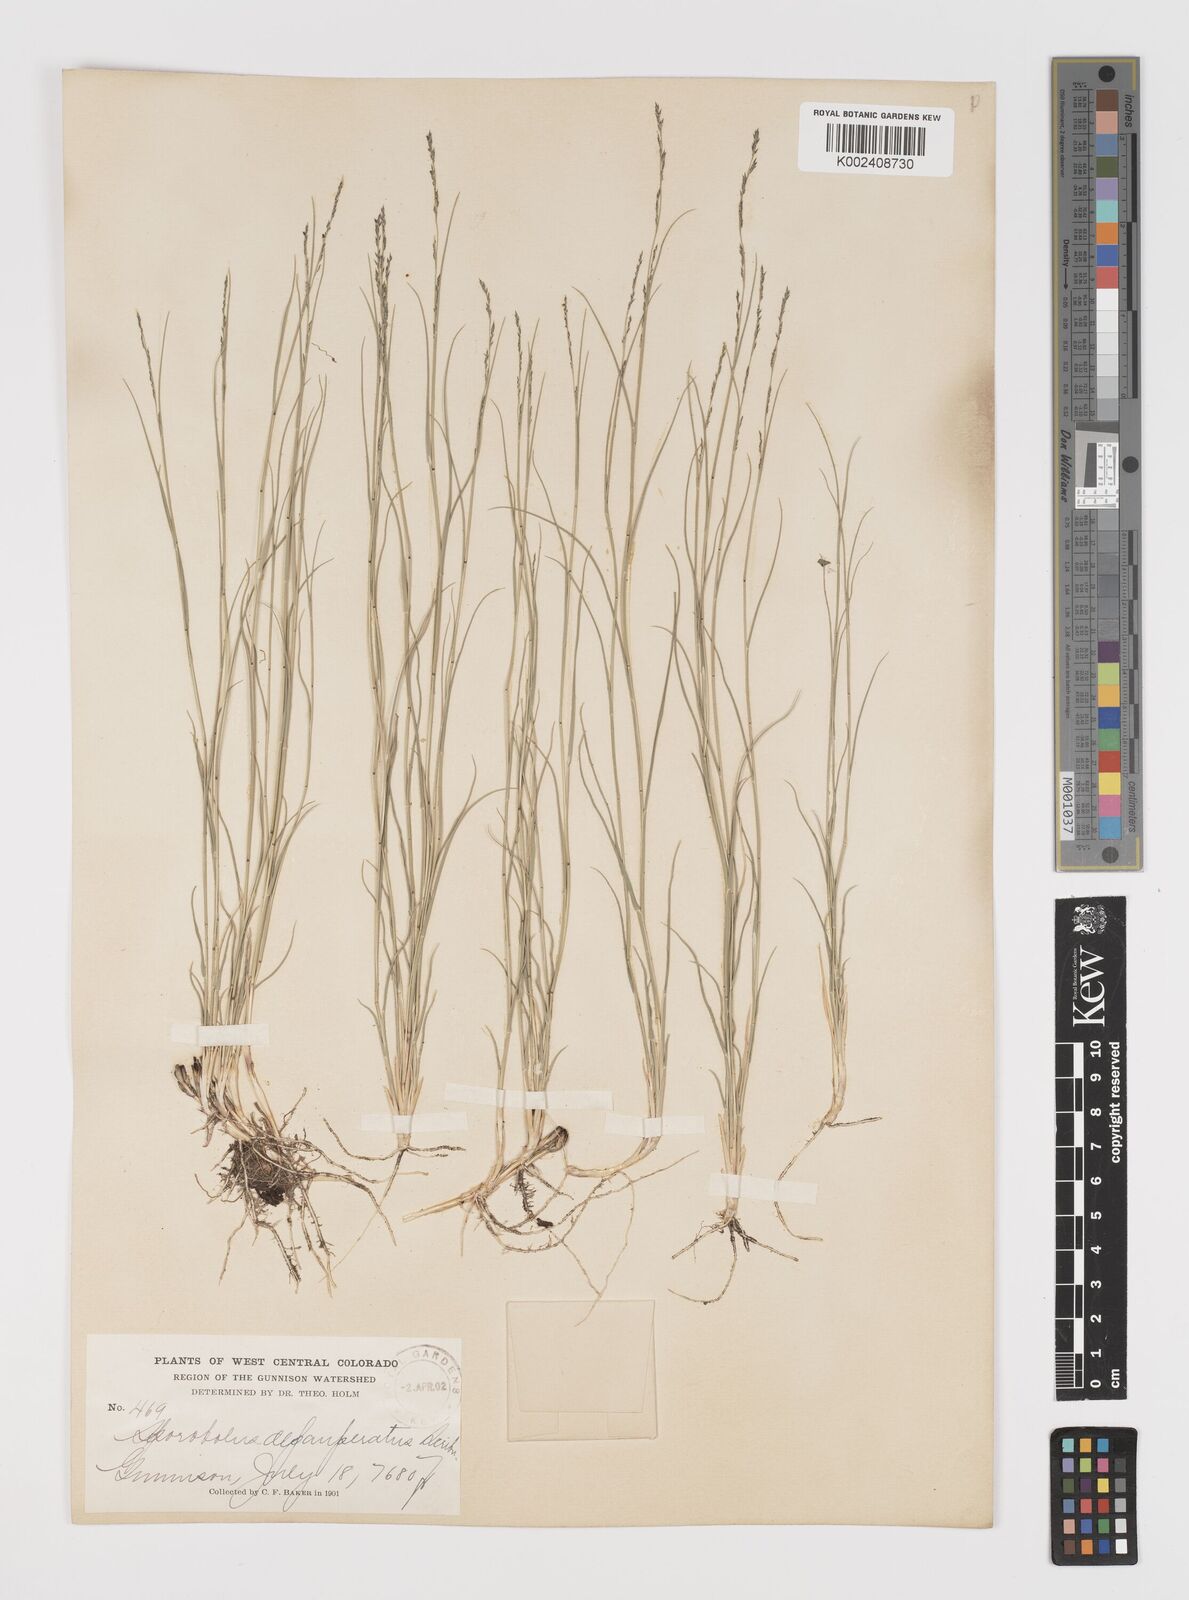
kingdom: Plantae
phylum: Tracheophyta
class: Liliopsida
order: Poales
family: Poaceae
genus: Muhlenbergia
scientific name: Muhlenbergia richardsonis
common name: Mat muhly
